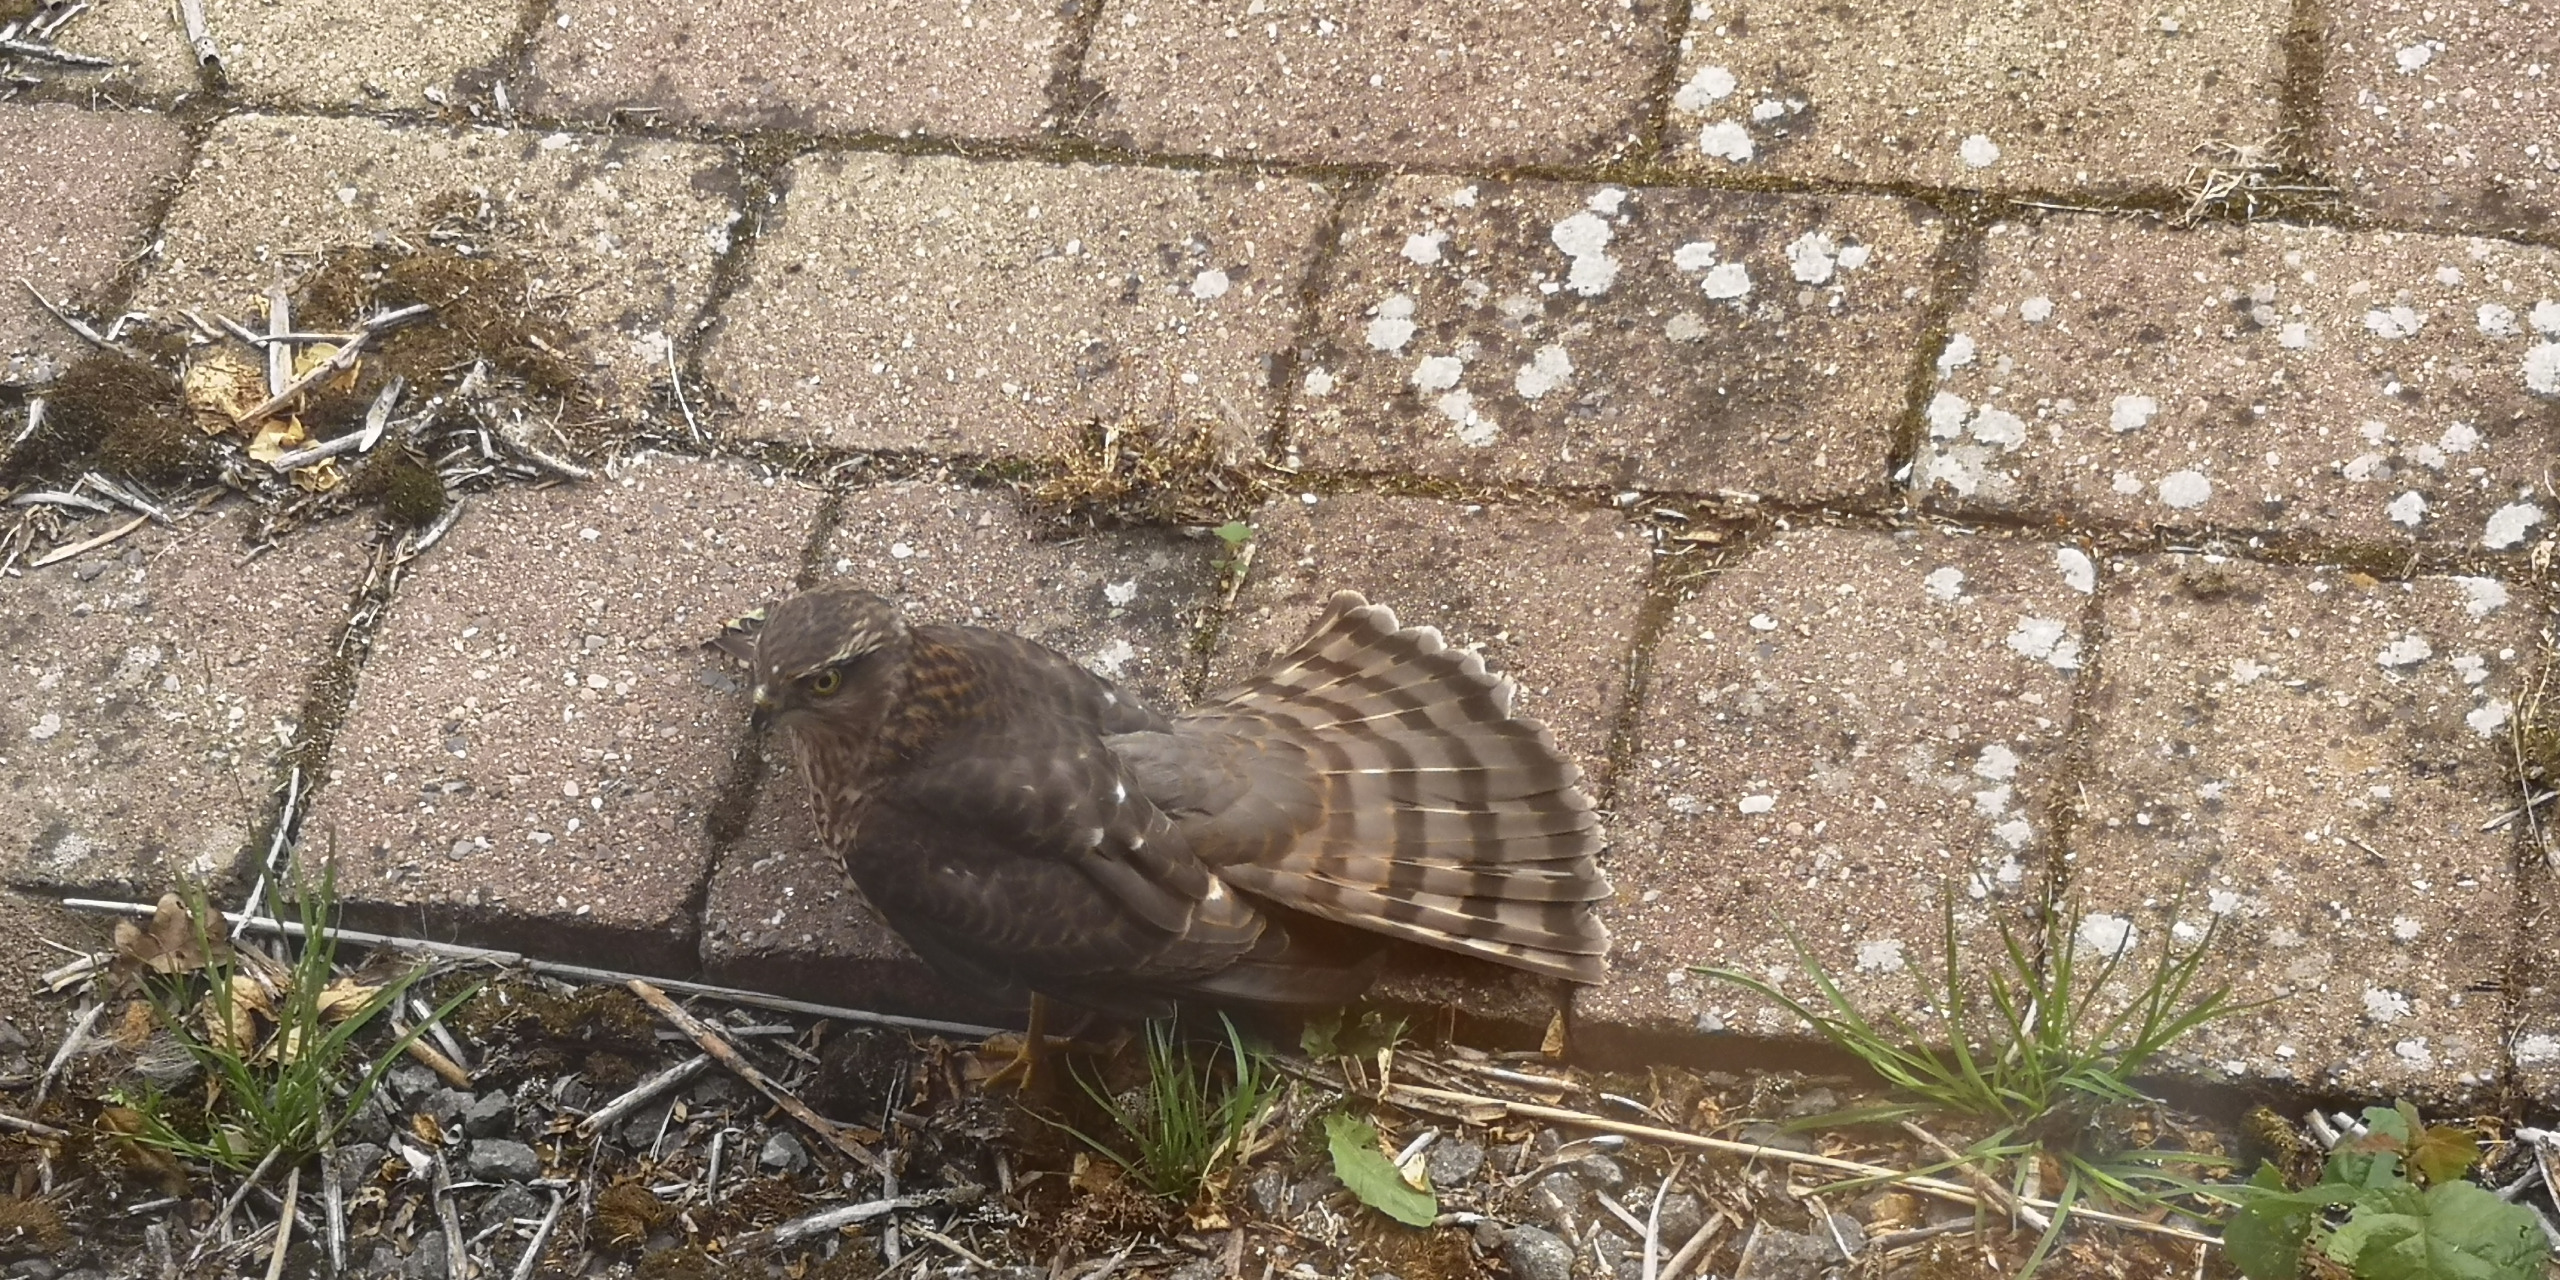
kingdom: Animalia
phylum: Chordata
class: Aves
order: Accipitriformes
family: Accipitridae
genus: Accipiter
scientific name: Accipiter nisus
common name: Spurvehøg
